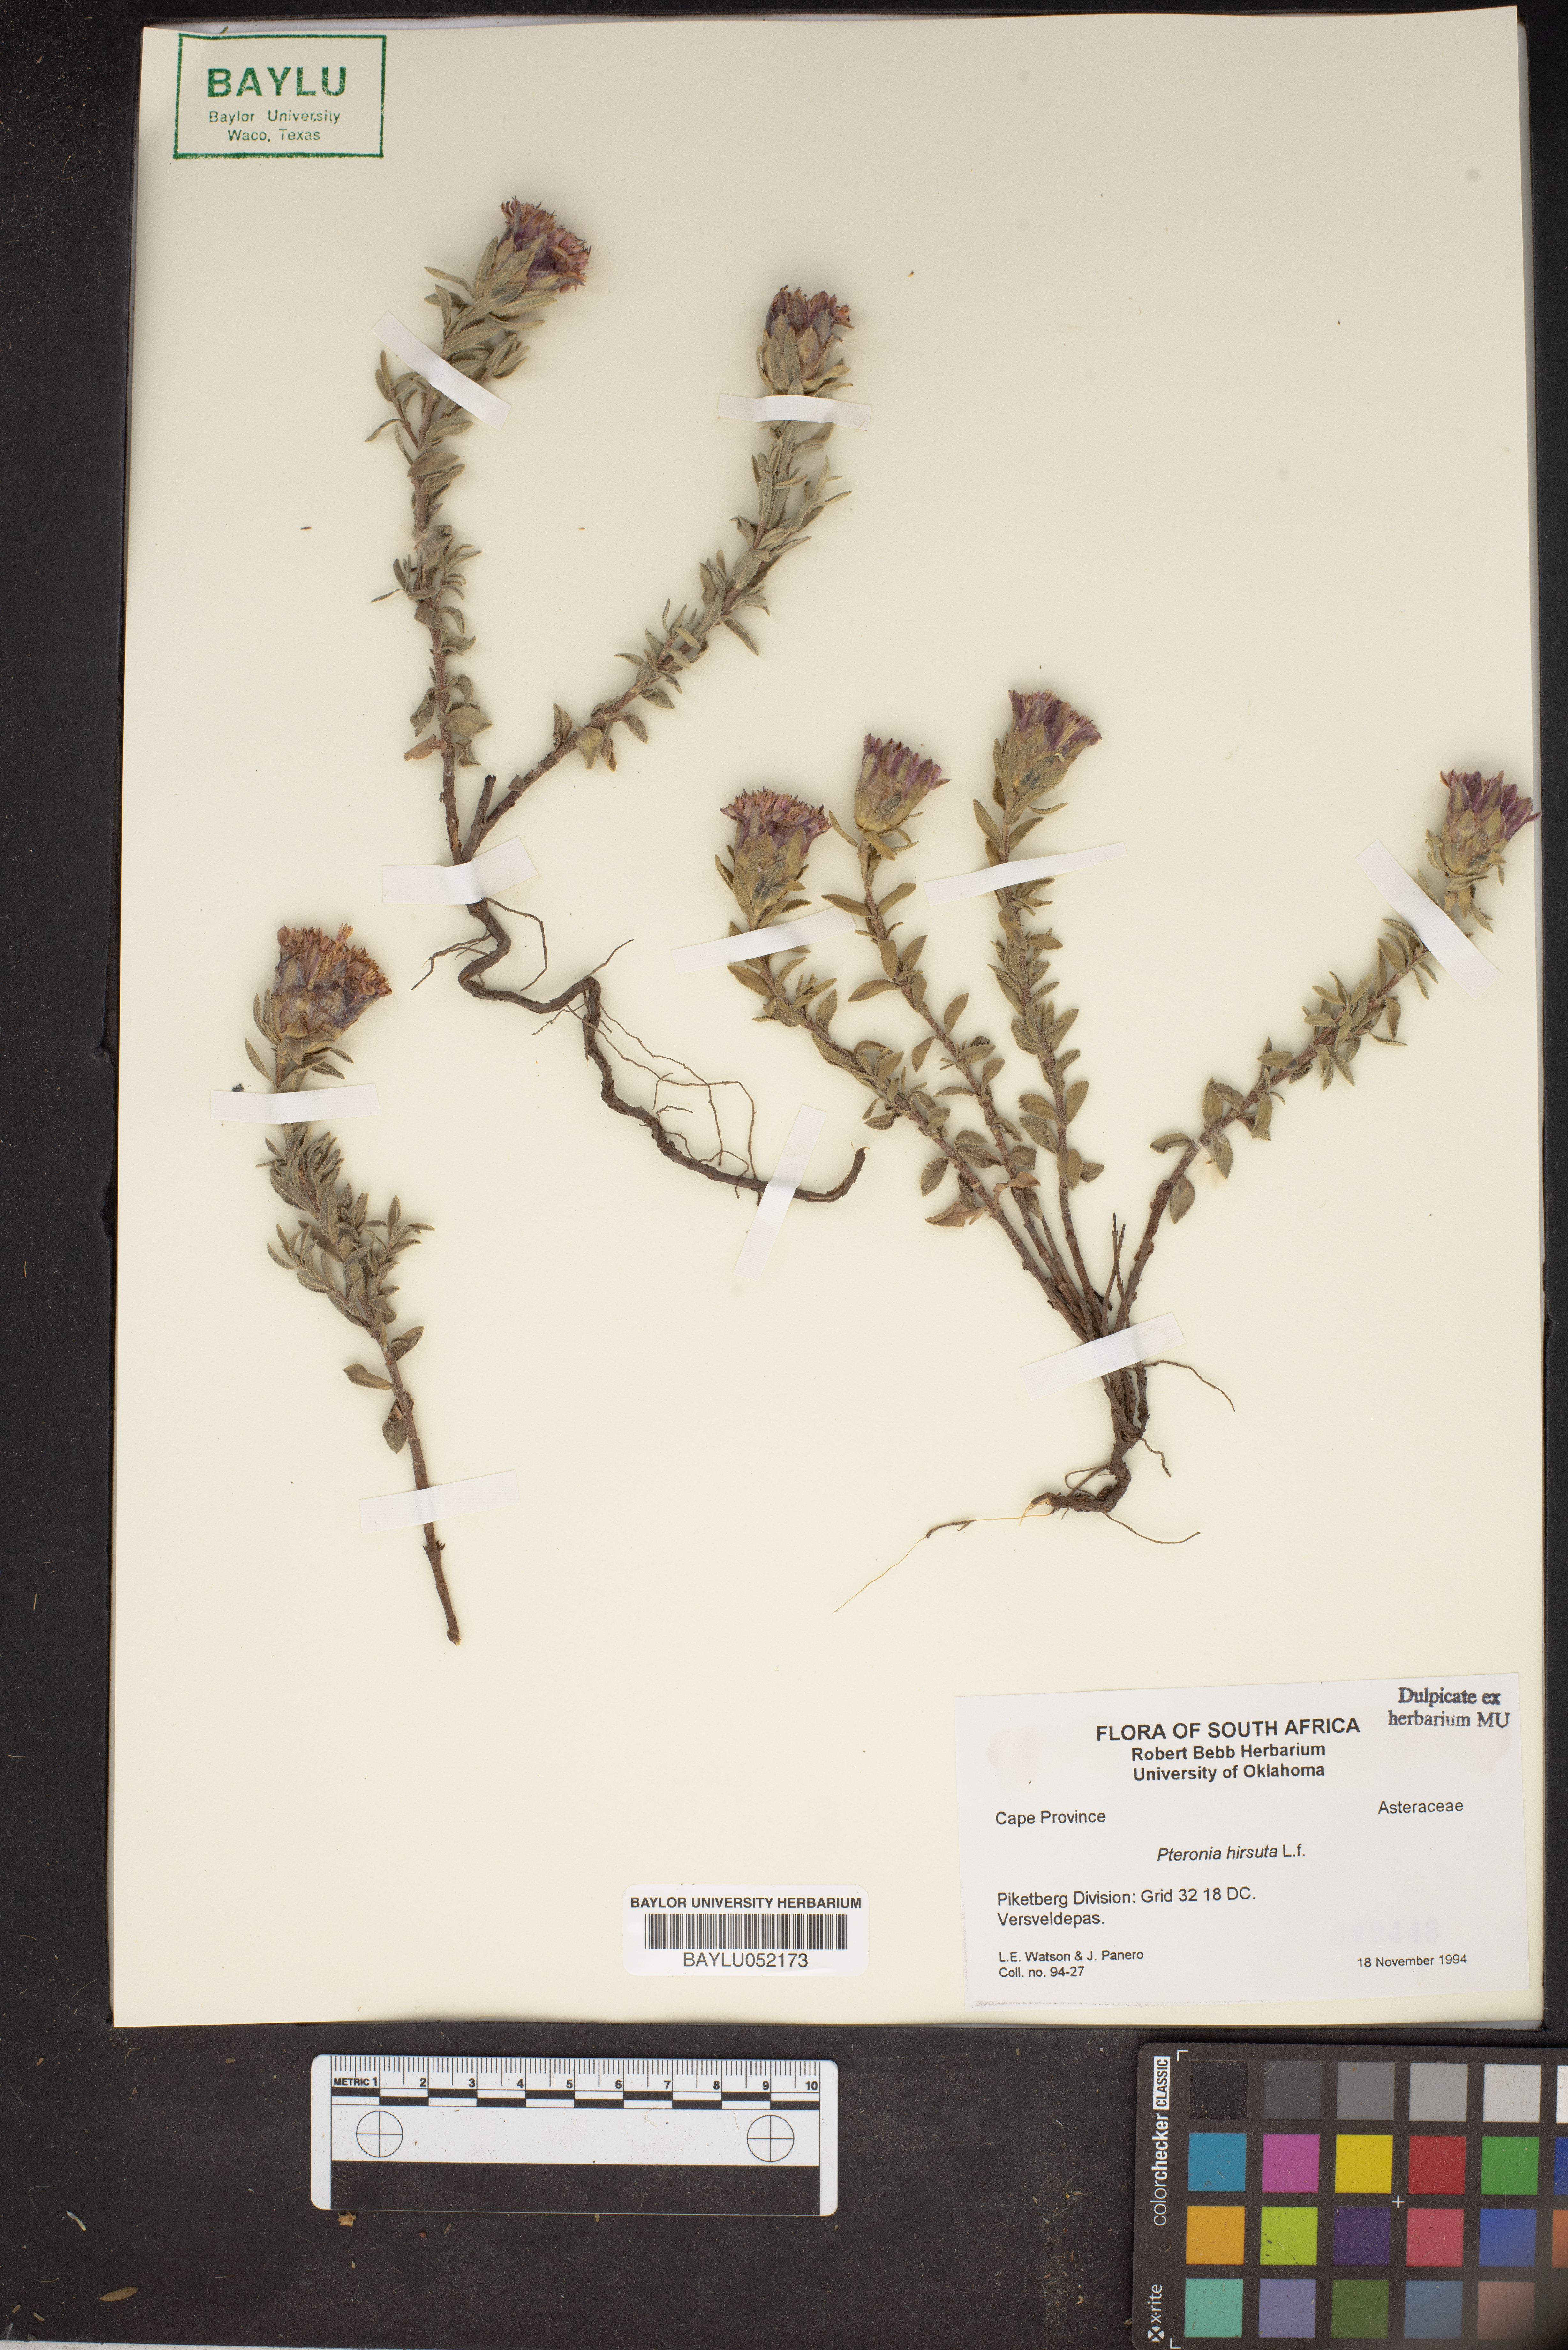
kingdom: Plantae
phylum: Tracheophyta
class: Magnoliopsida
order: Asterales
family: Asteraceae
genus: Pteronia
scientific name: Pteronia hirsuta
